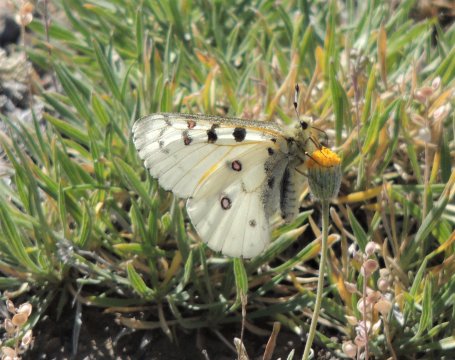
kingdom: Animalia
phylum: Arthropoda
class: Insecta
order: Lepidoptera
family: Papilionidae
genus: Parnassius
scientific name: Parnassius smintheus
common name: Rocky Mountain Parnassian
